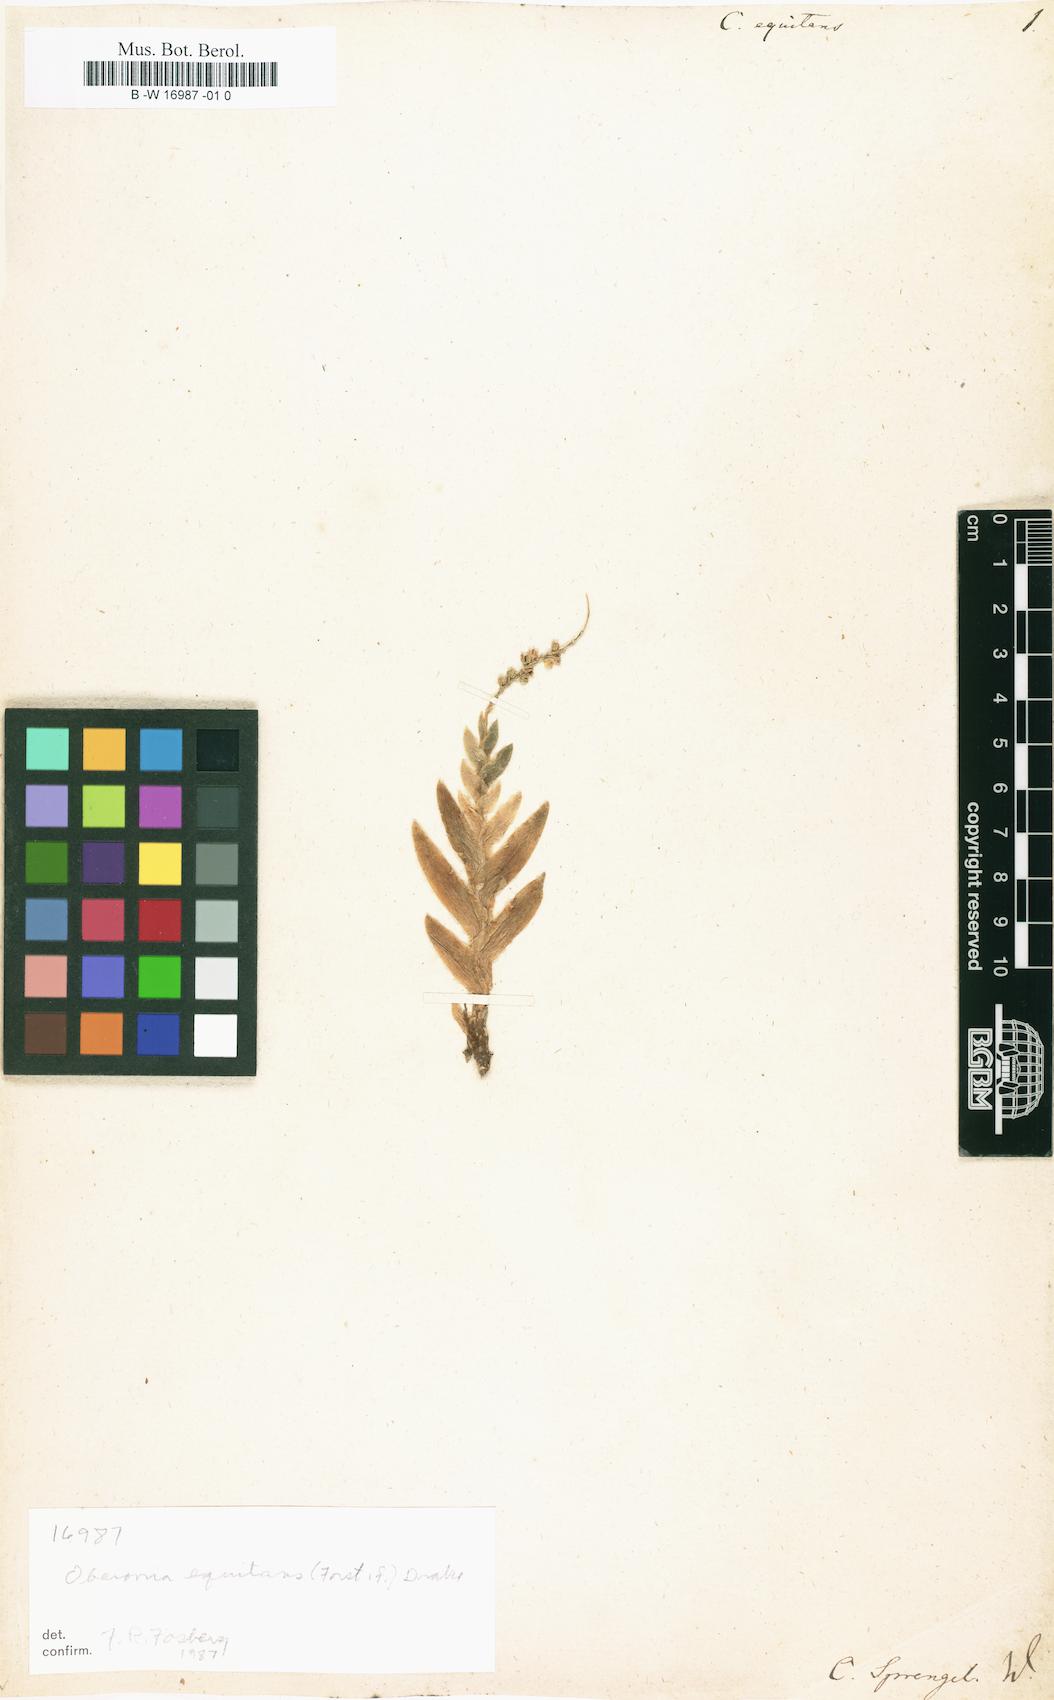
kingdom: Plantae
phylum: Tracheophyta
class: Liliopsida
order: Asparagales
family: Orchidaceae
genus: Oberonia
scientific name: Oberonia equitans
